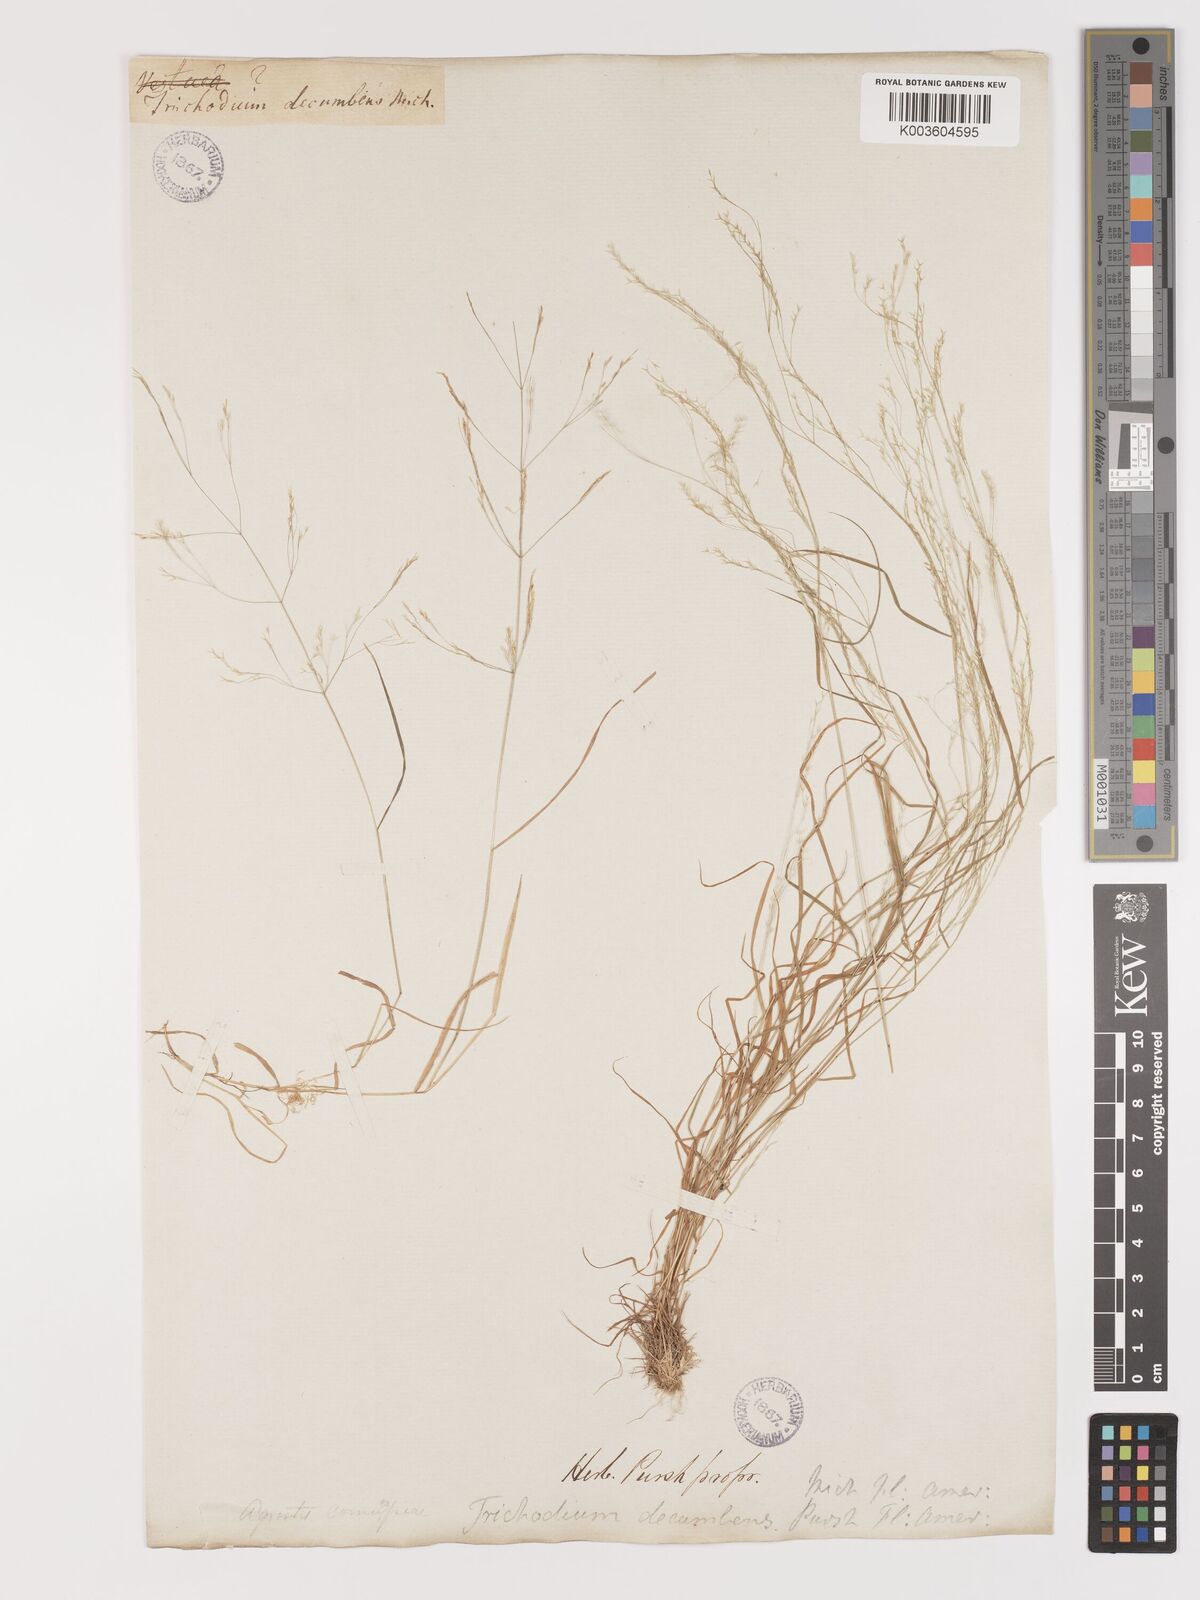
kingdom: Plantae
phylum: Tracheophyta
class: Liliopsida
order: Poales
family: Poaceae
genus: Agrostis
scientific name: Agrostis hyemalis
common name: Small bent
